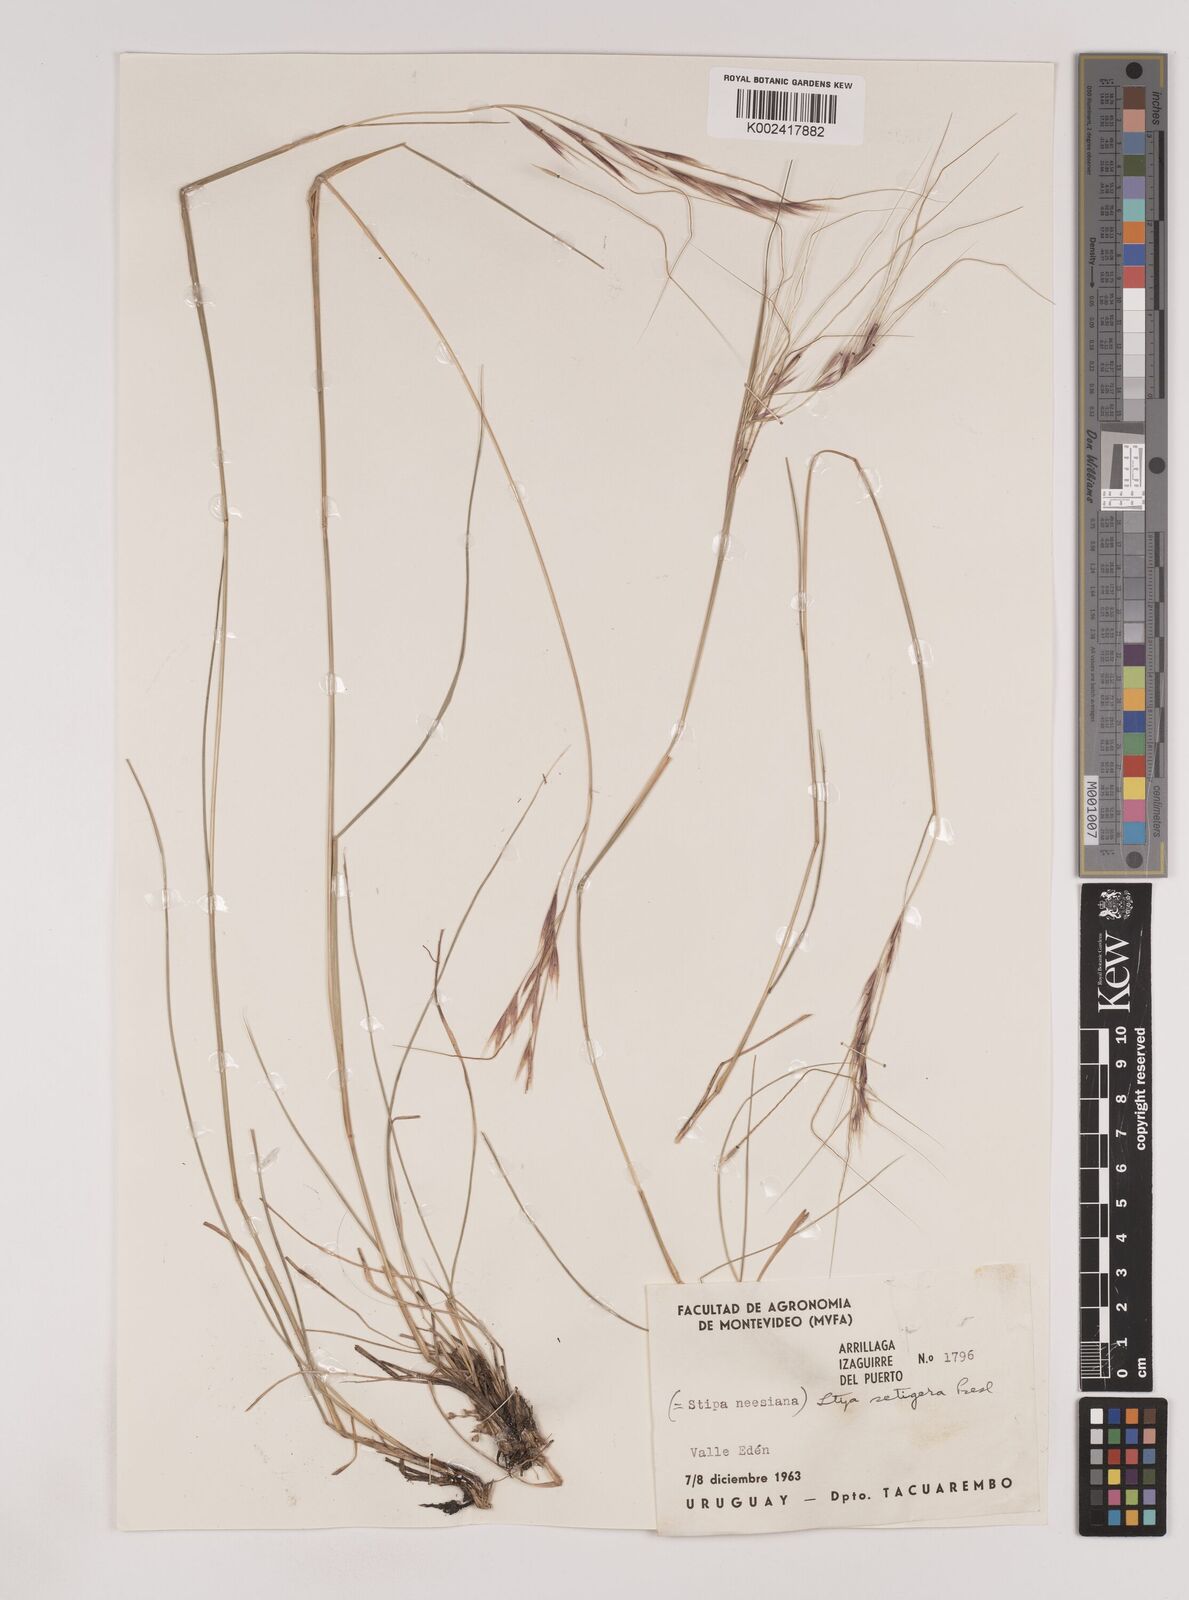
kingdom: Plantae
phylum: Tracheophyta
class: Liliopsida
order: Poales
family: Poaceae
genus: Nassella
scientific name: Nassella neesiana
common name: American needle-grass
